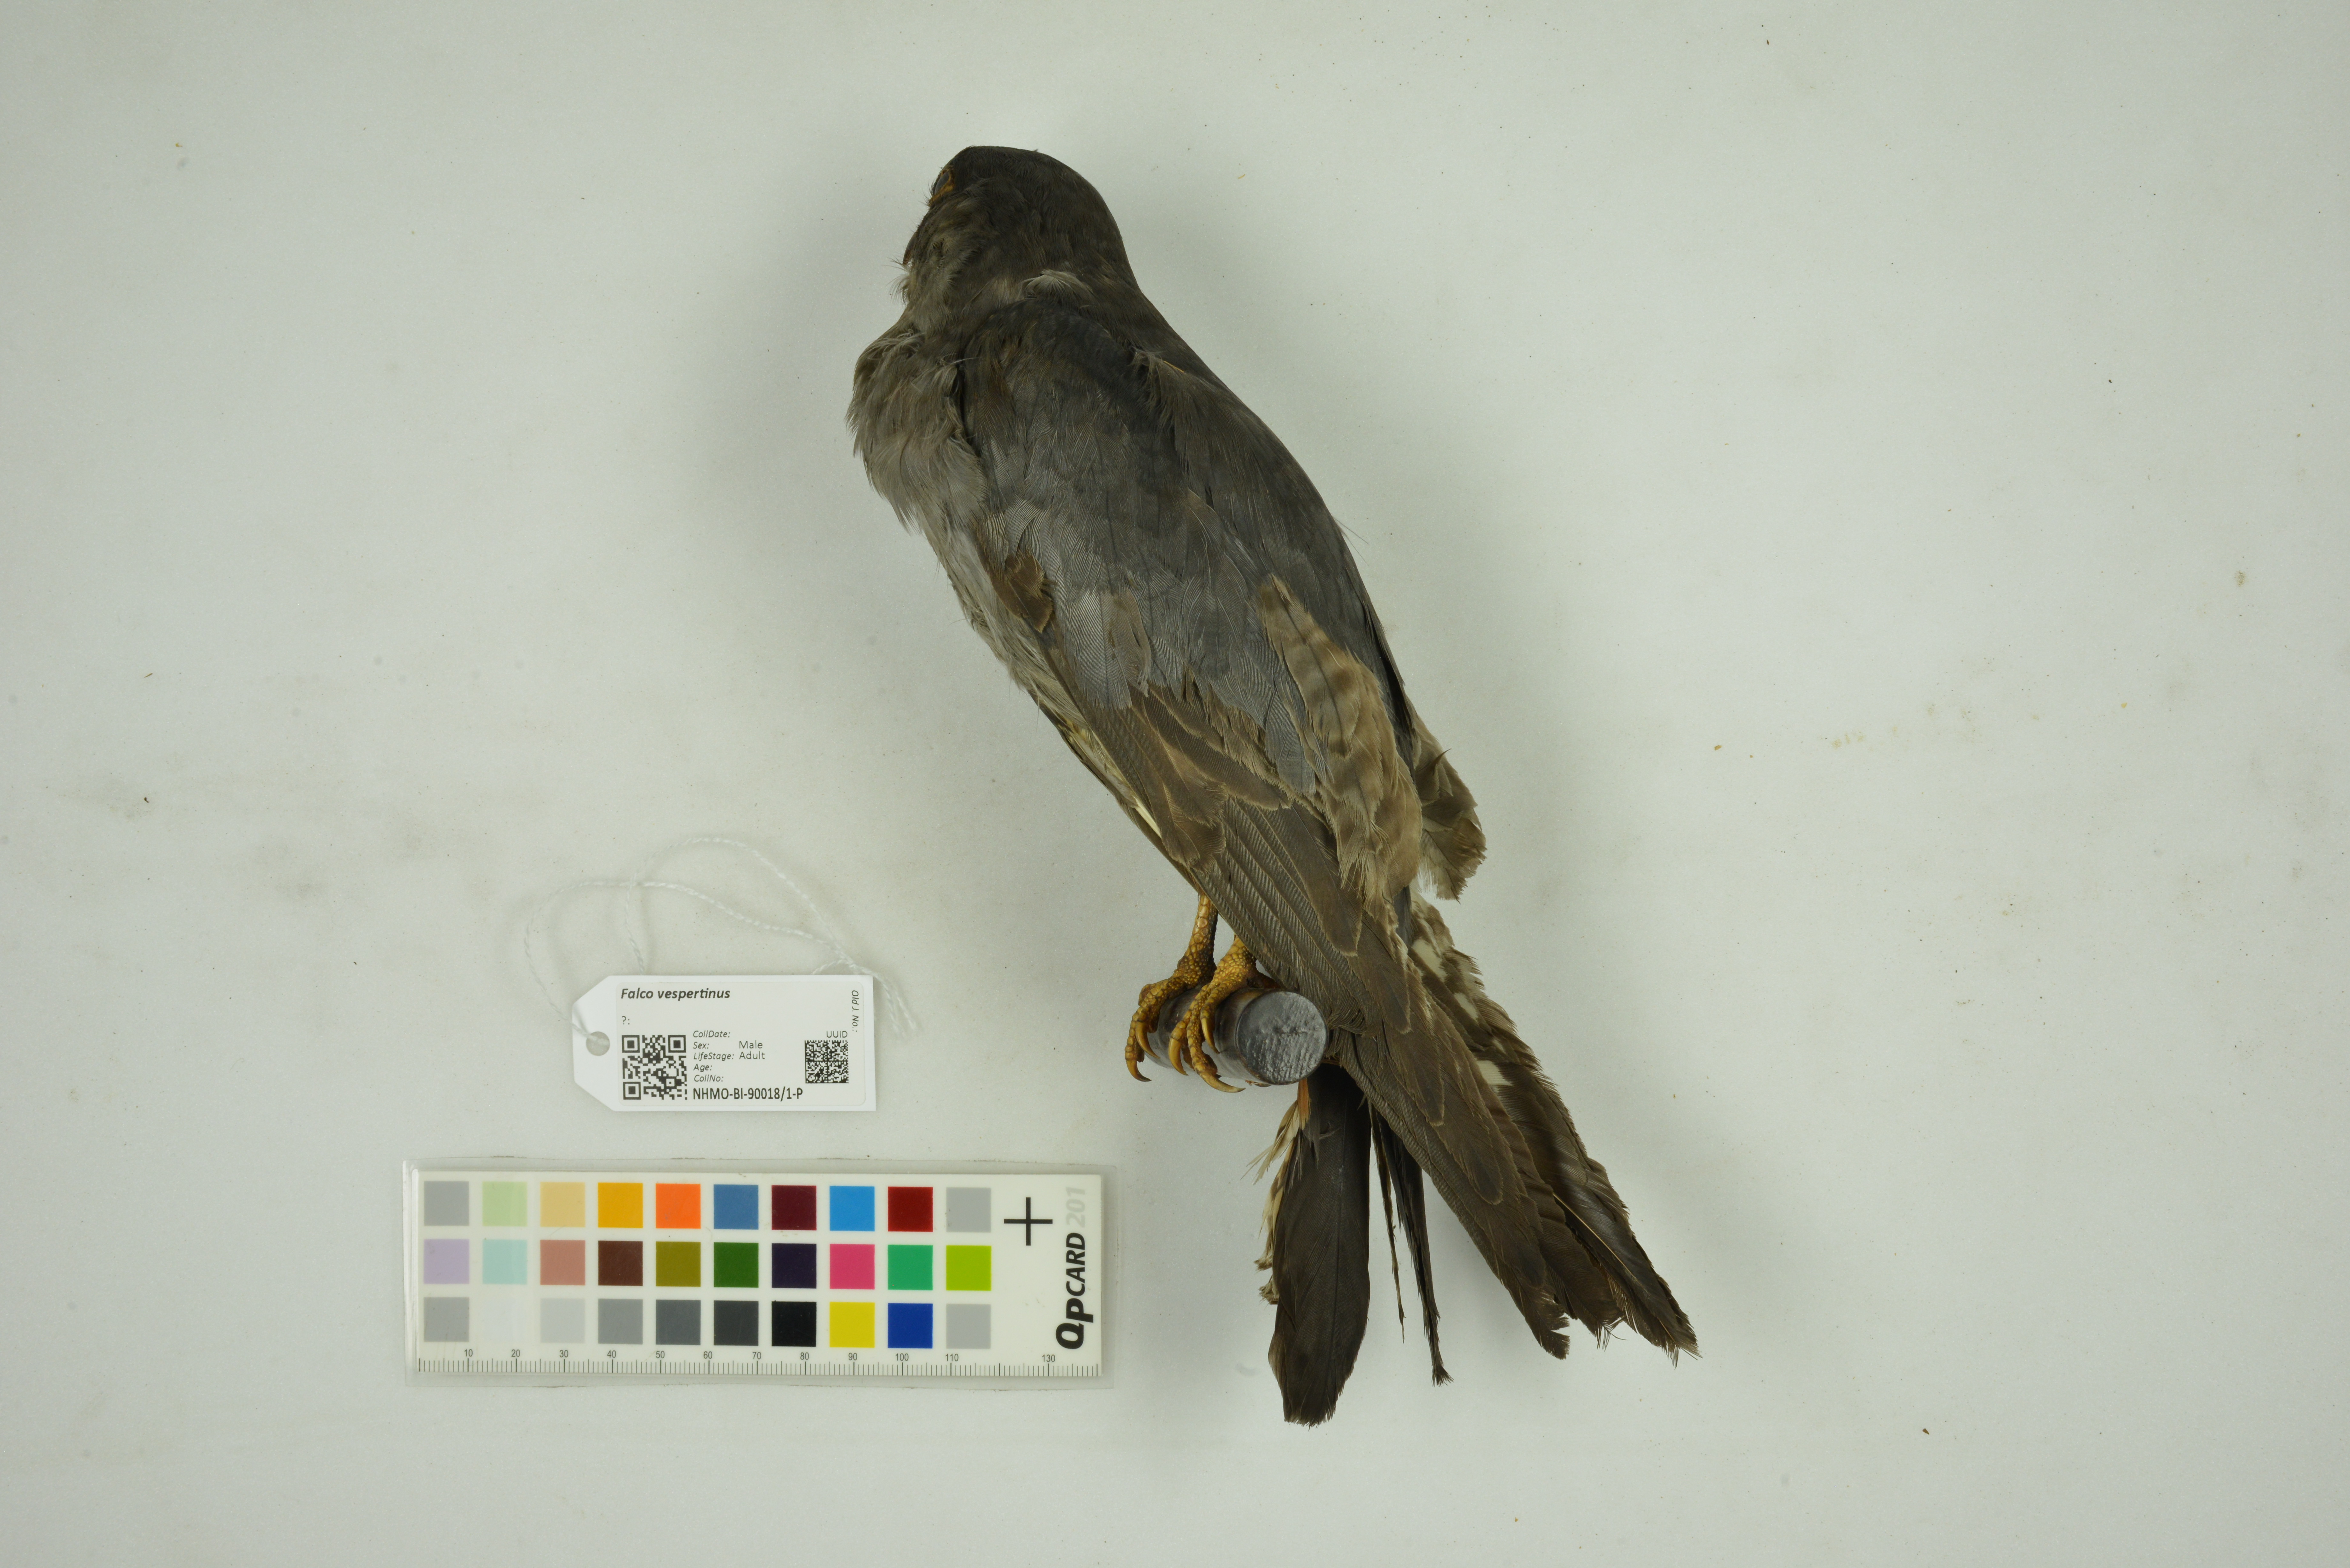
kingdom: Animalia
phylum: Chordata
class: Aves
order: Falconiformes
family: Falconidae
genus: Falco
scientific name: Falco vespertinus
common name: Red-footed falcon
